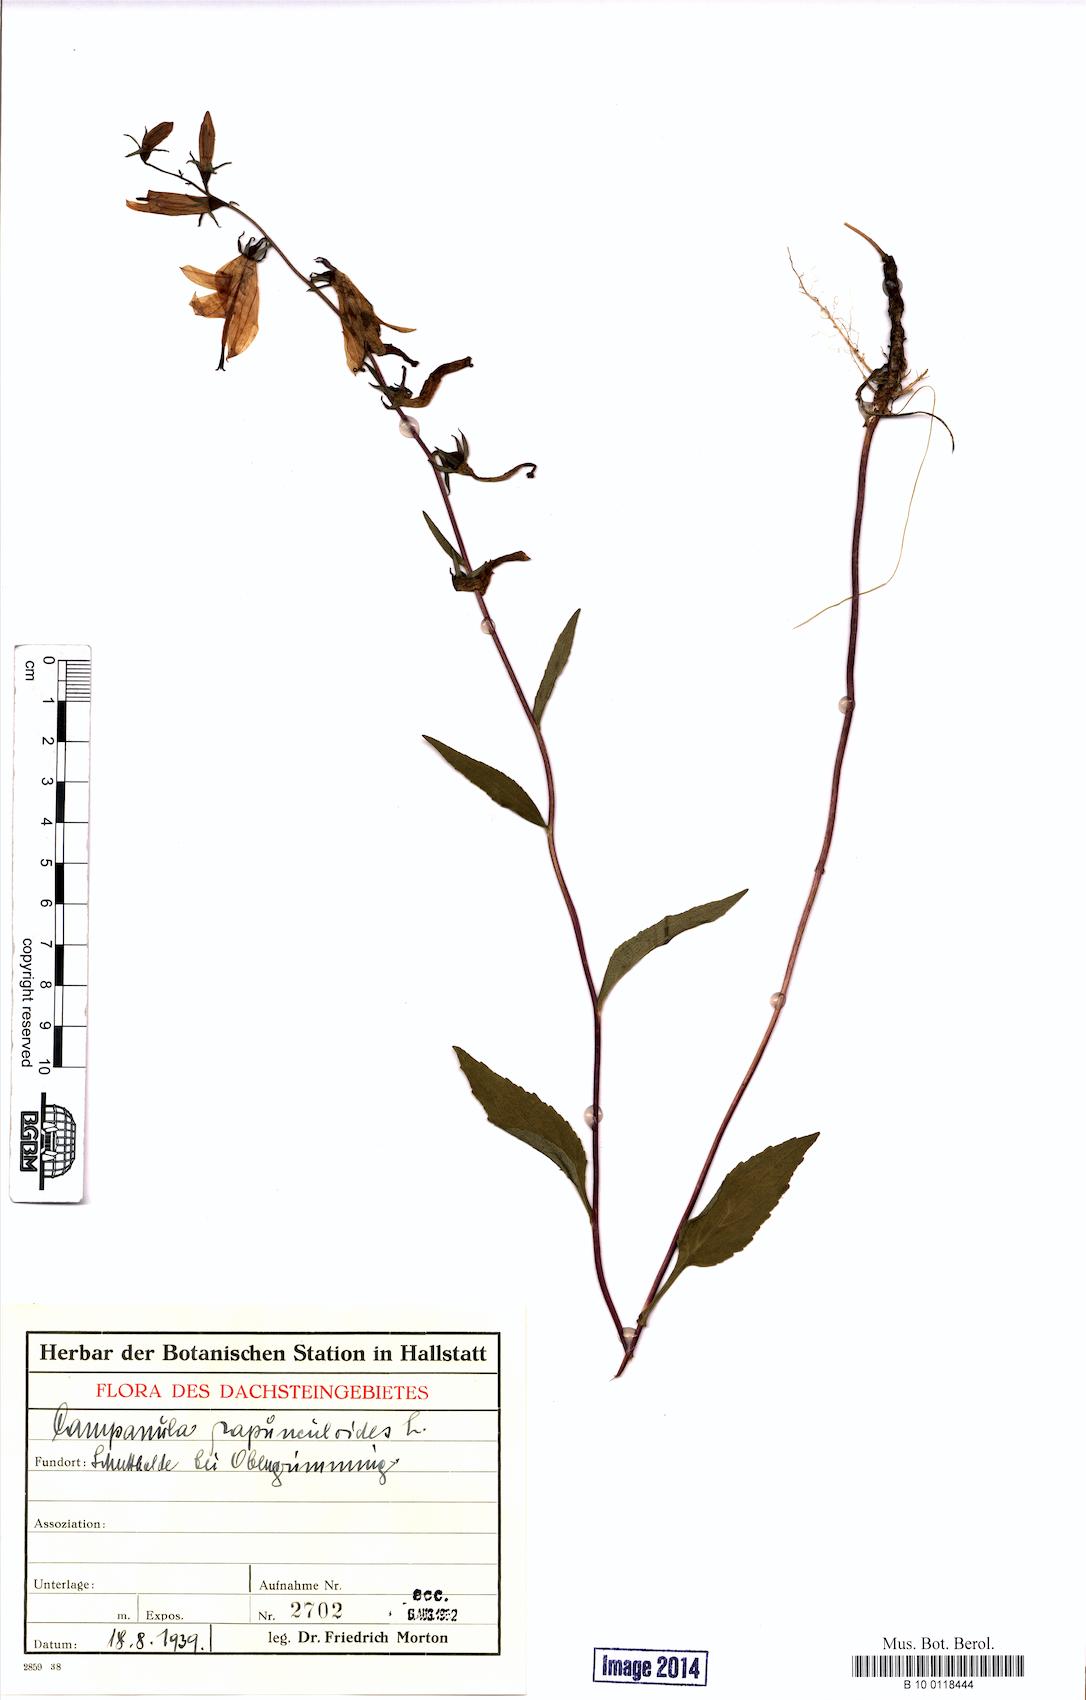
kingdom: Plantae
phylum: Tracheophyta
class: Magnoliopsida
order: Asterales
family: Campanulaceae
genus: Campanula
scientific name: Campanula rapunculoides
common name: Creeping bellflower
